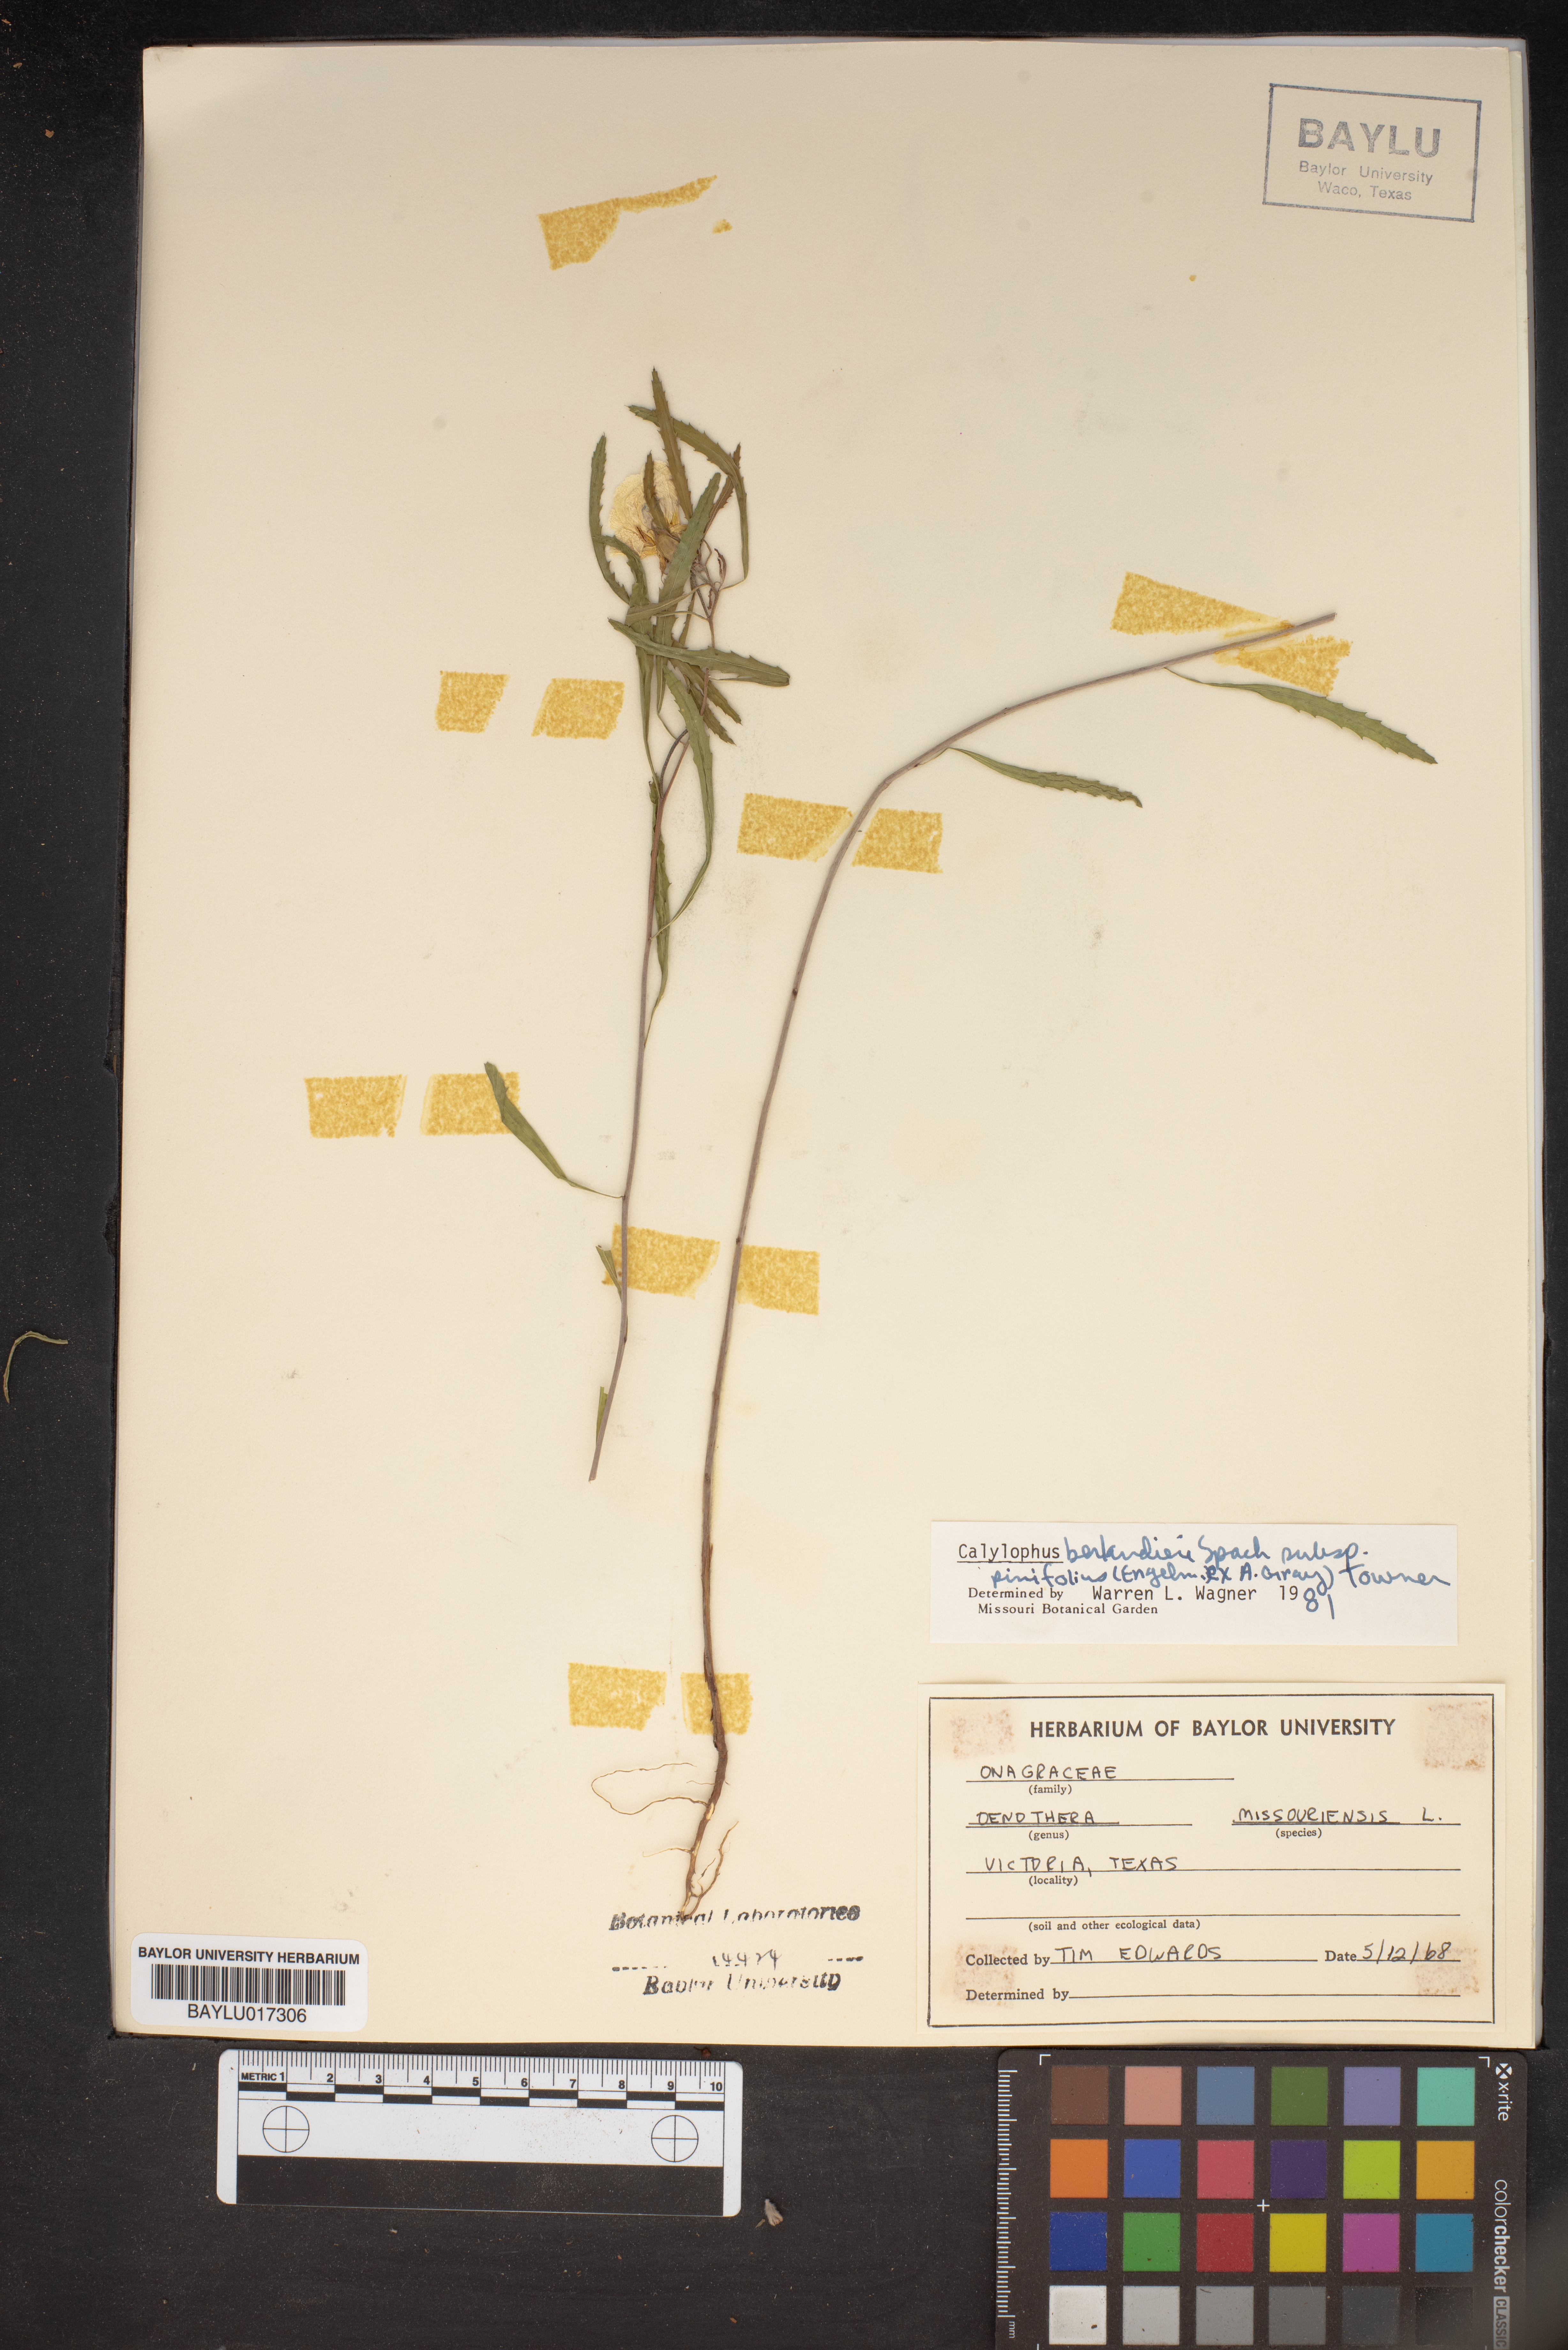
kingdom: Plantae
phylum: Tracheophyta
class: Magnoliopsida
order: Myrtales
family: Onagraceae
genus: Oenothera
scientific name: Oenothera macrocarpa
